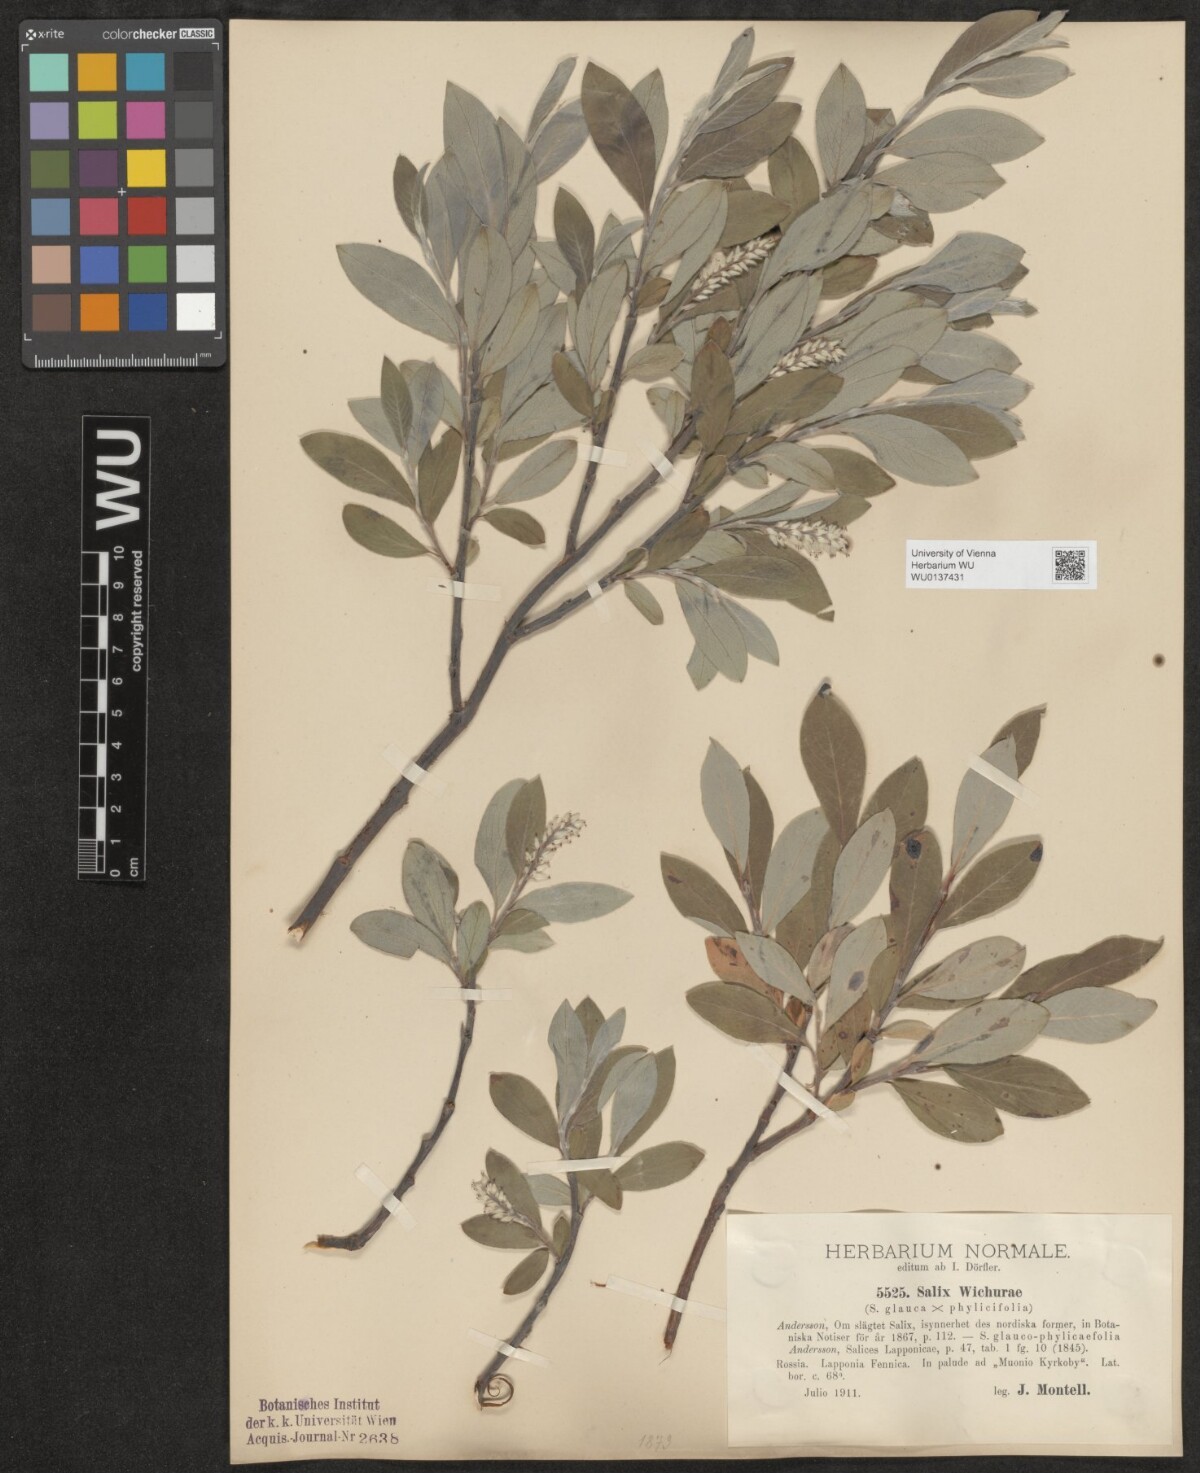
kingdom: Plantae
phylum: Tracheophyta
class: Magnoliopsida
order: Malpighiales
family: Salicaceae
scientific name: Salicaceae
